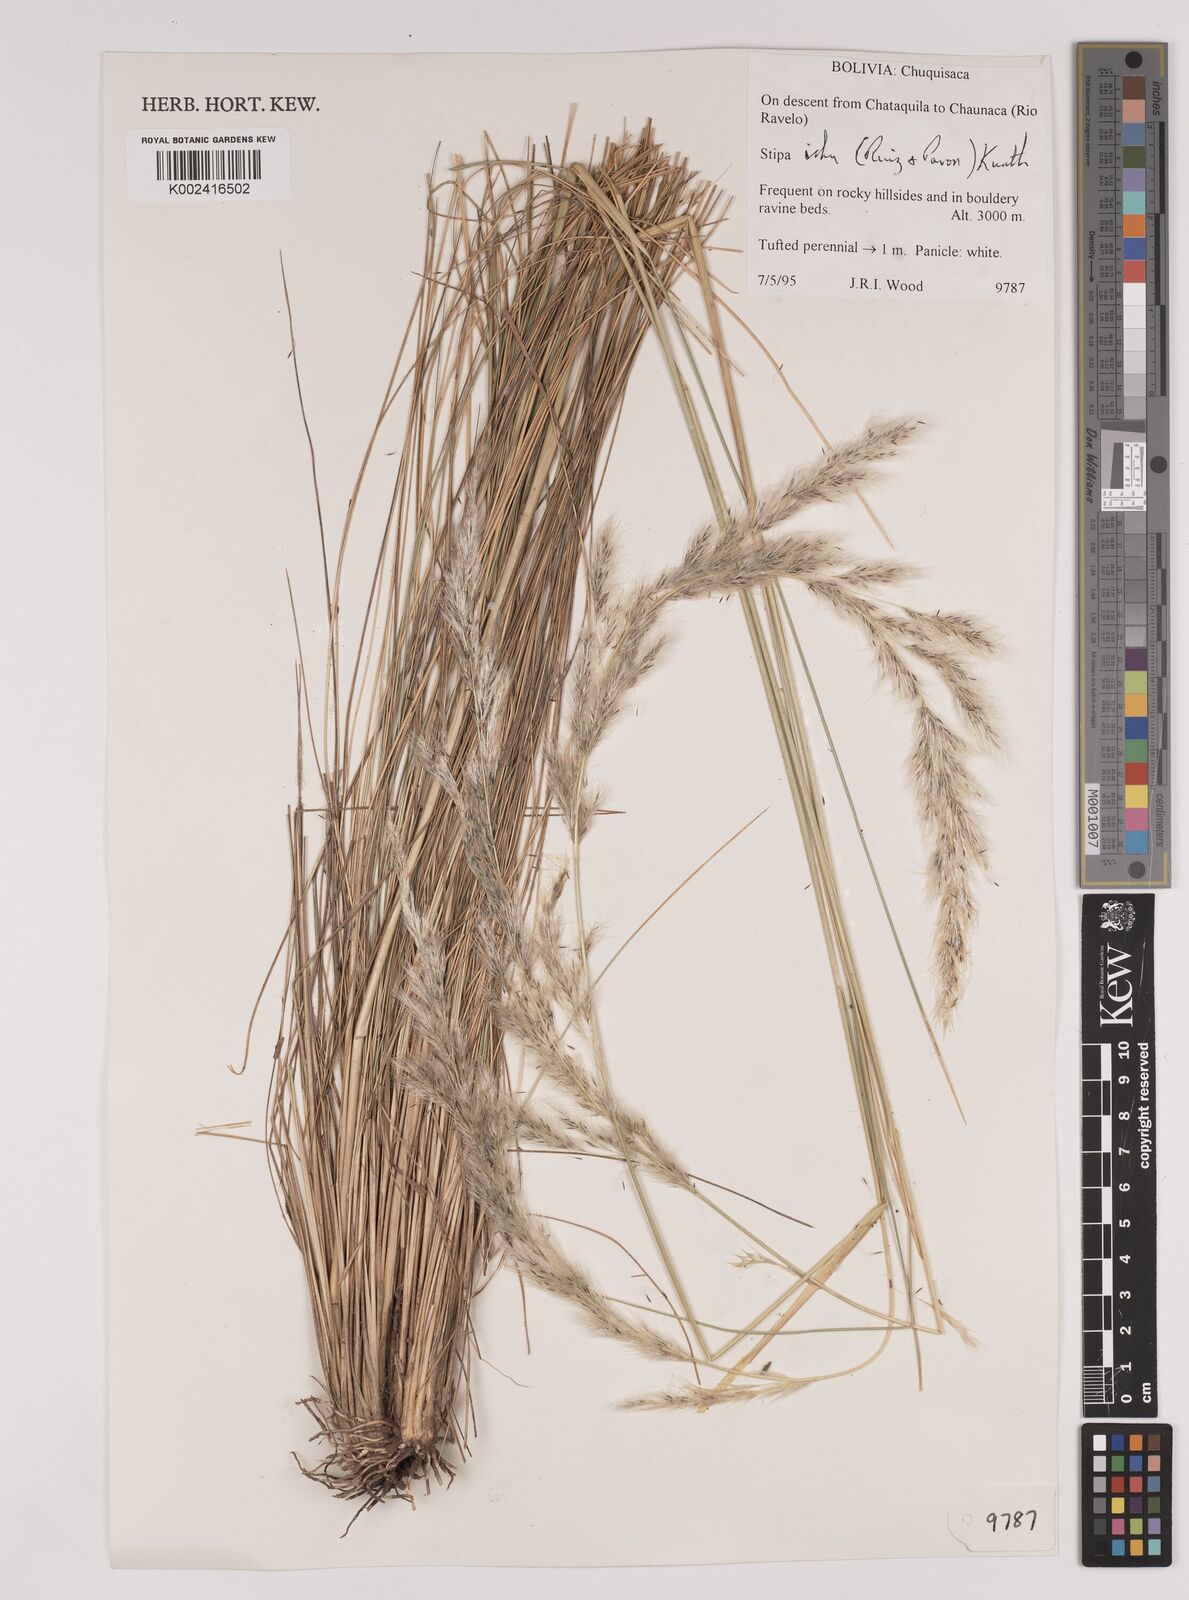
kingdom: Plantae
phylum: Tracheophyta
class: Liliopsida
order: Poales
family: Poaceae
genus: Jarava
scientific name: Jarava ichu
